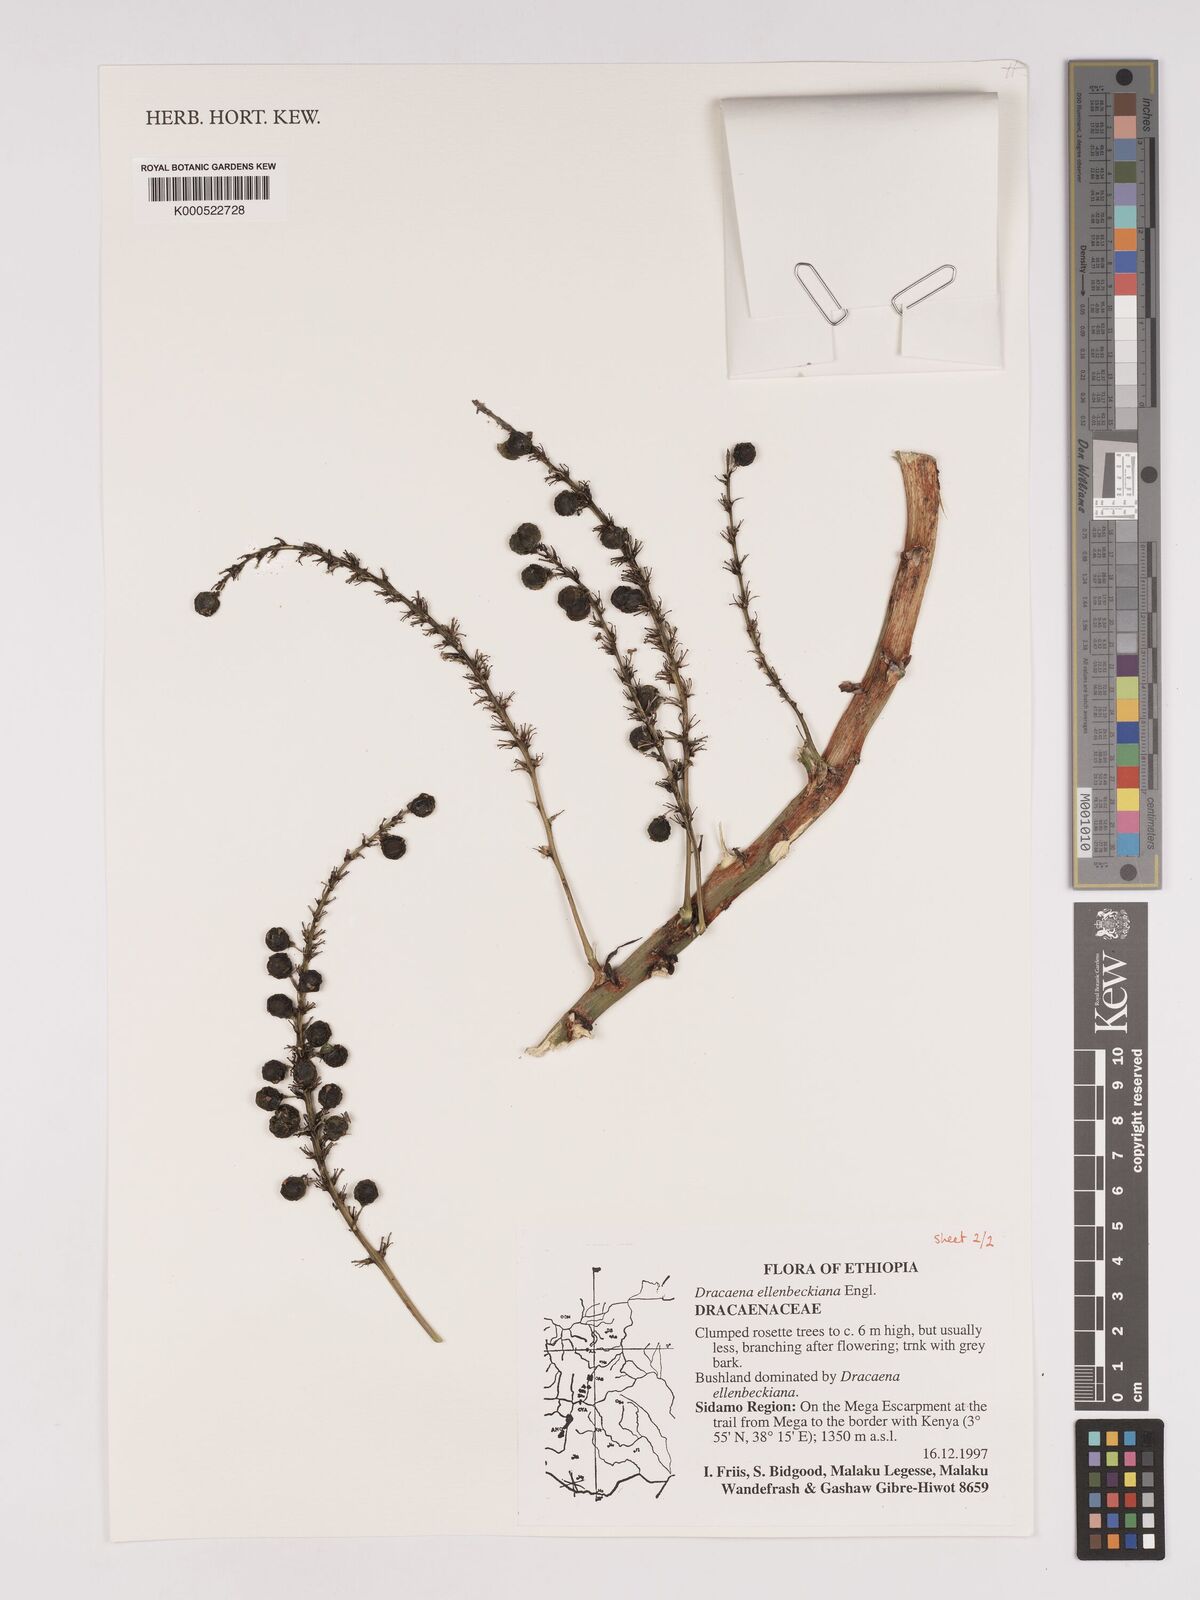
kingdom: Plantae
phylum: Tracheophyta
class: Liliopsida
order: Asparagales
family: Asparagaceae
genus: Dracaena
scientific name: Dracaena elliptica
